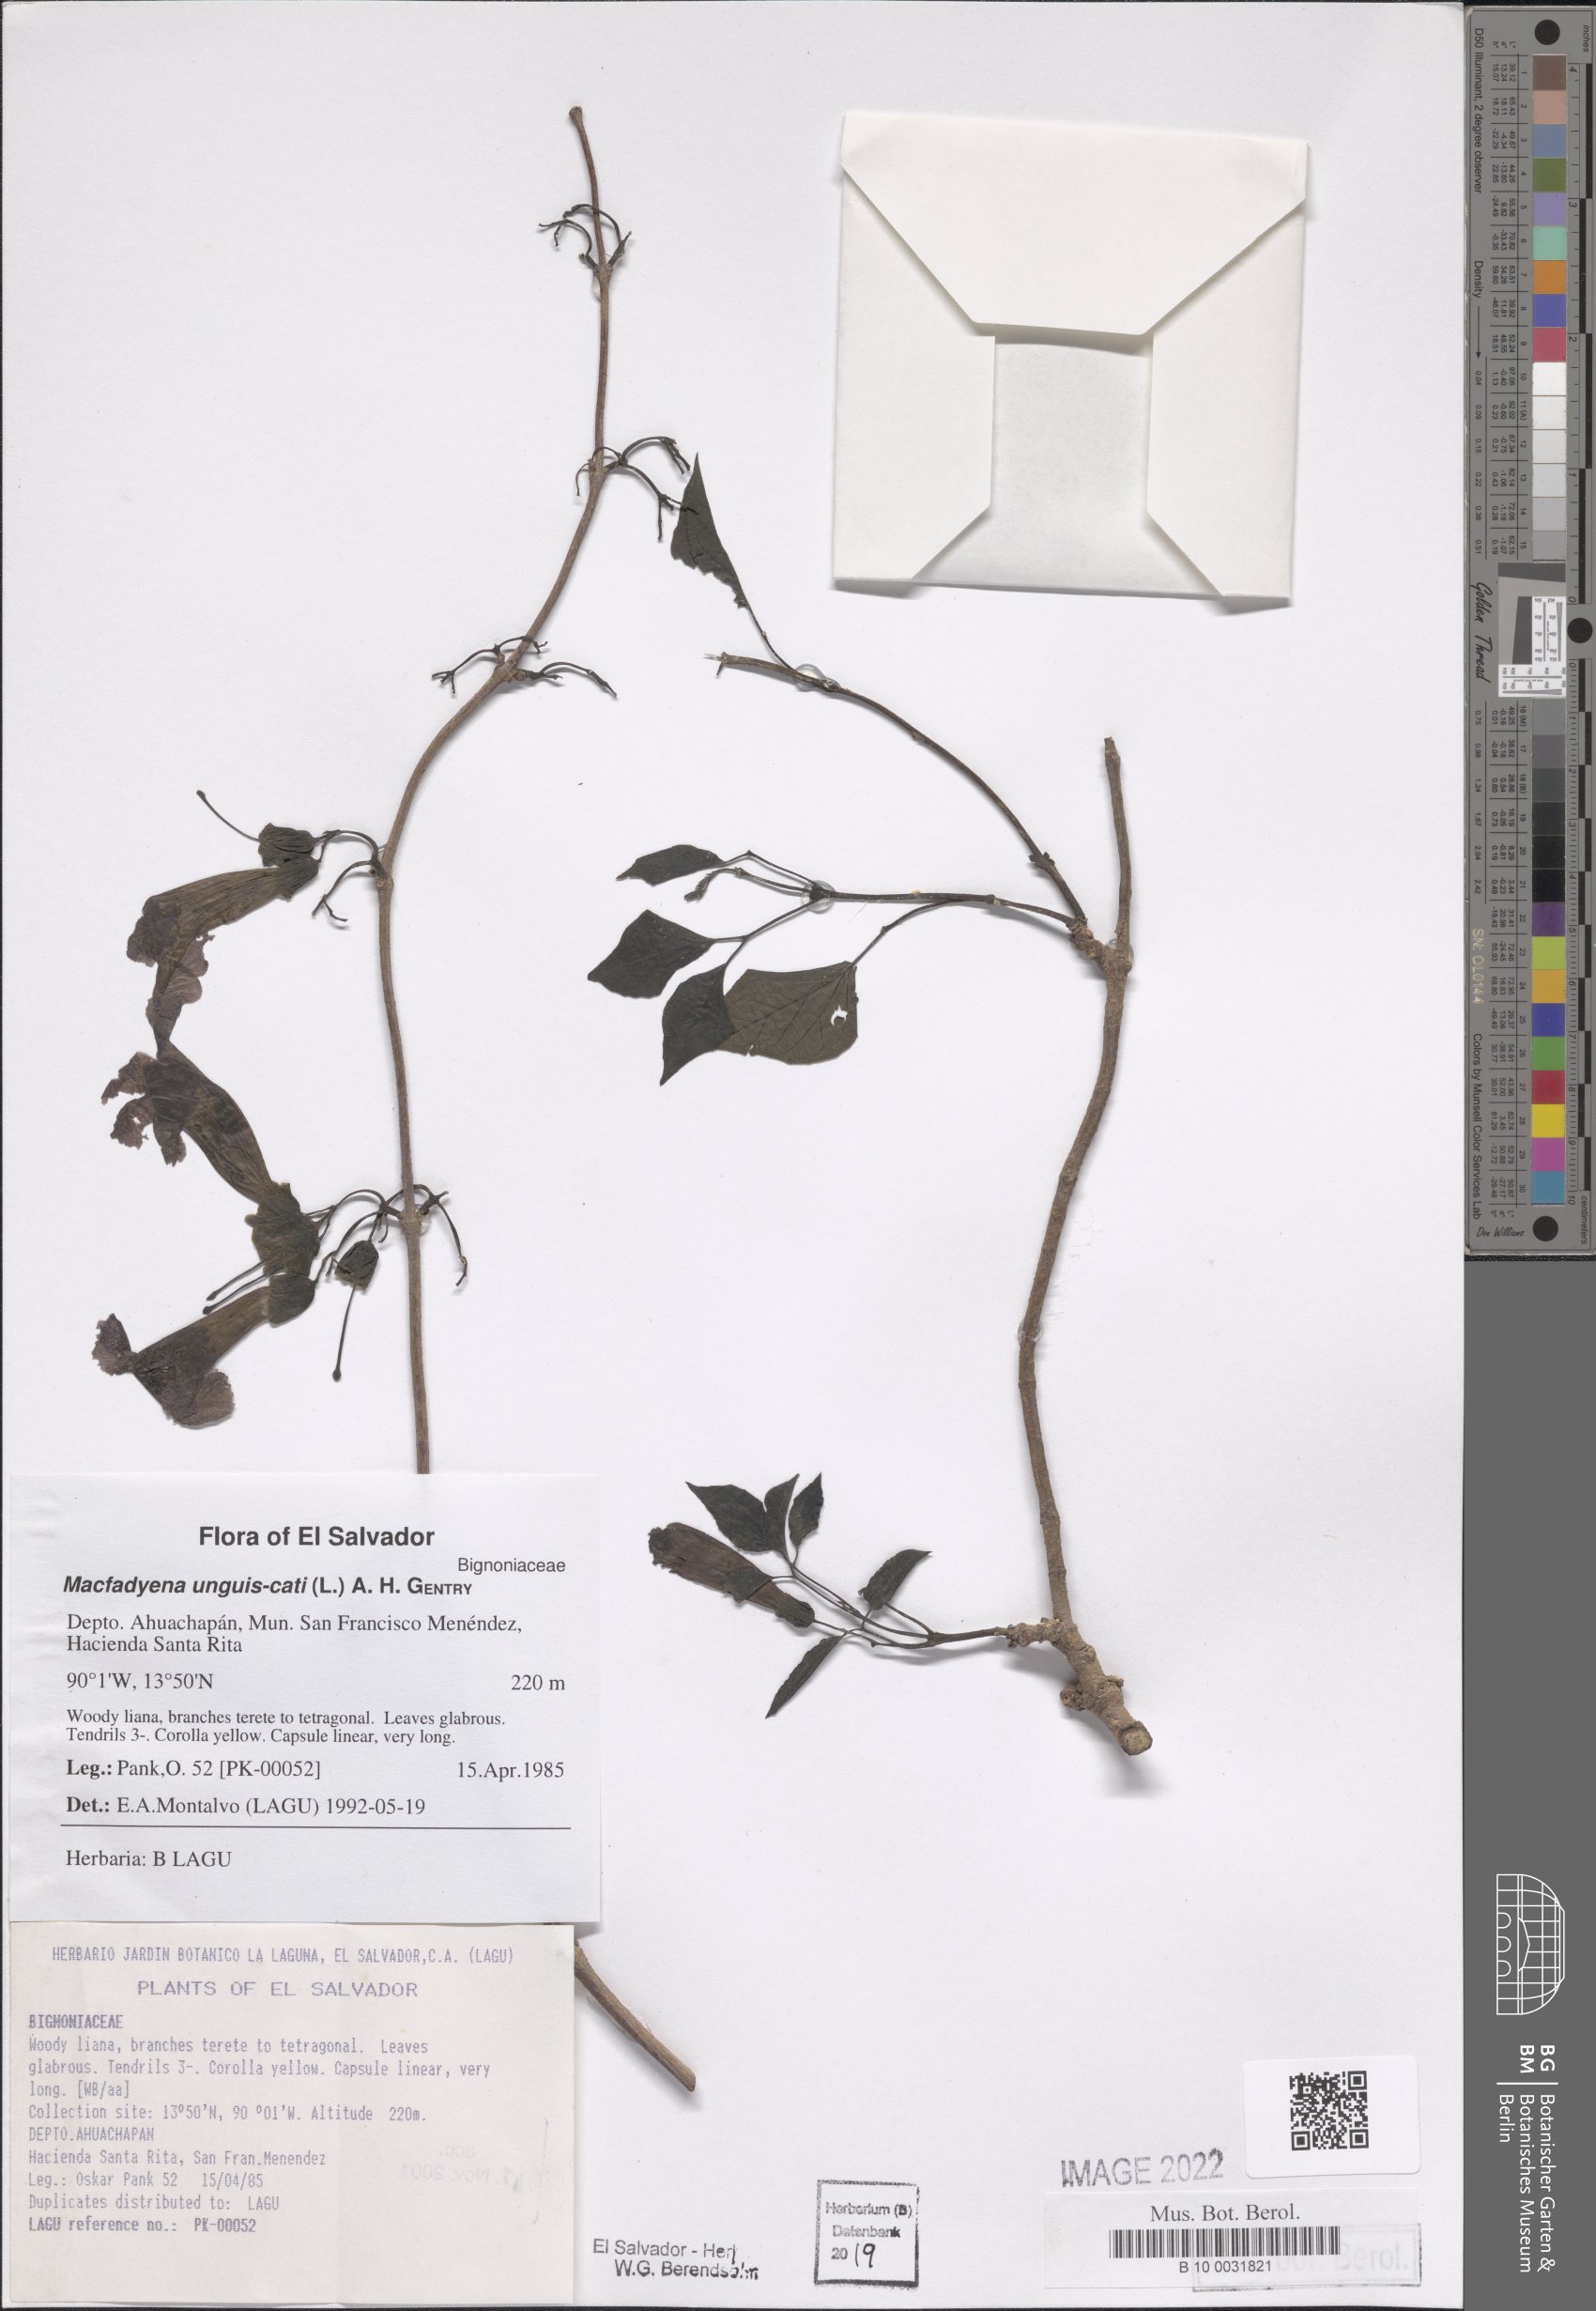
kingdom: Plantae
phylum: Tracheophyta
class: Magnoliopsida
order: Lamiales
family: Bignoniaceae
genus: Dolichandra
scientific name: Dolichandra unguis-cati
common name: Catclaw vine
